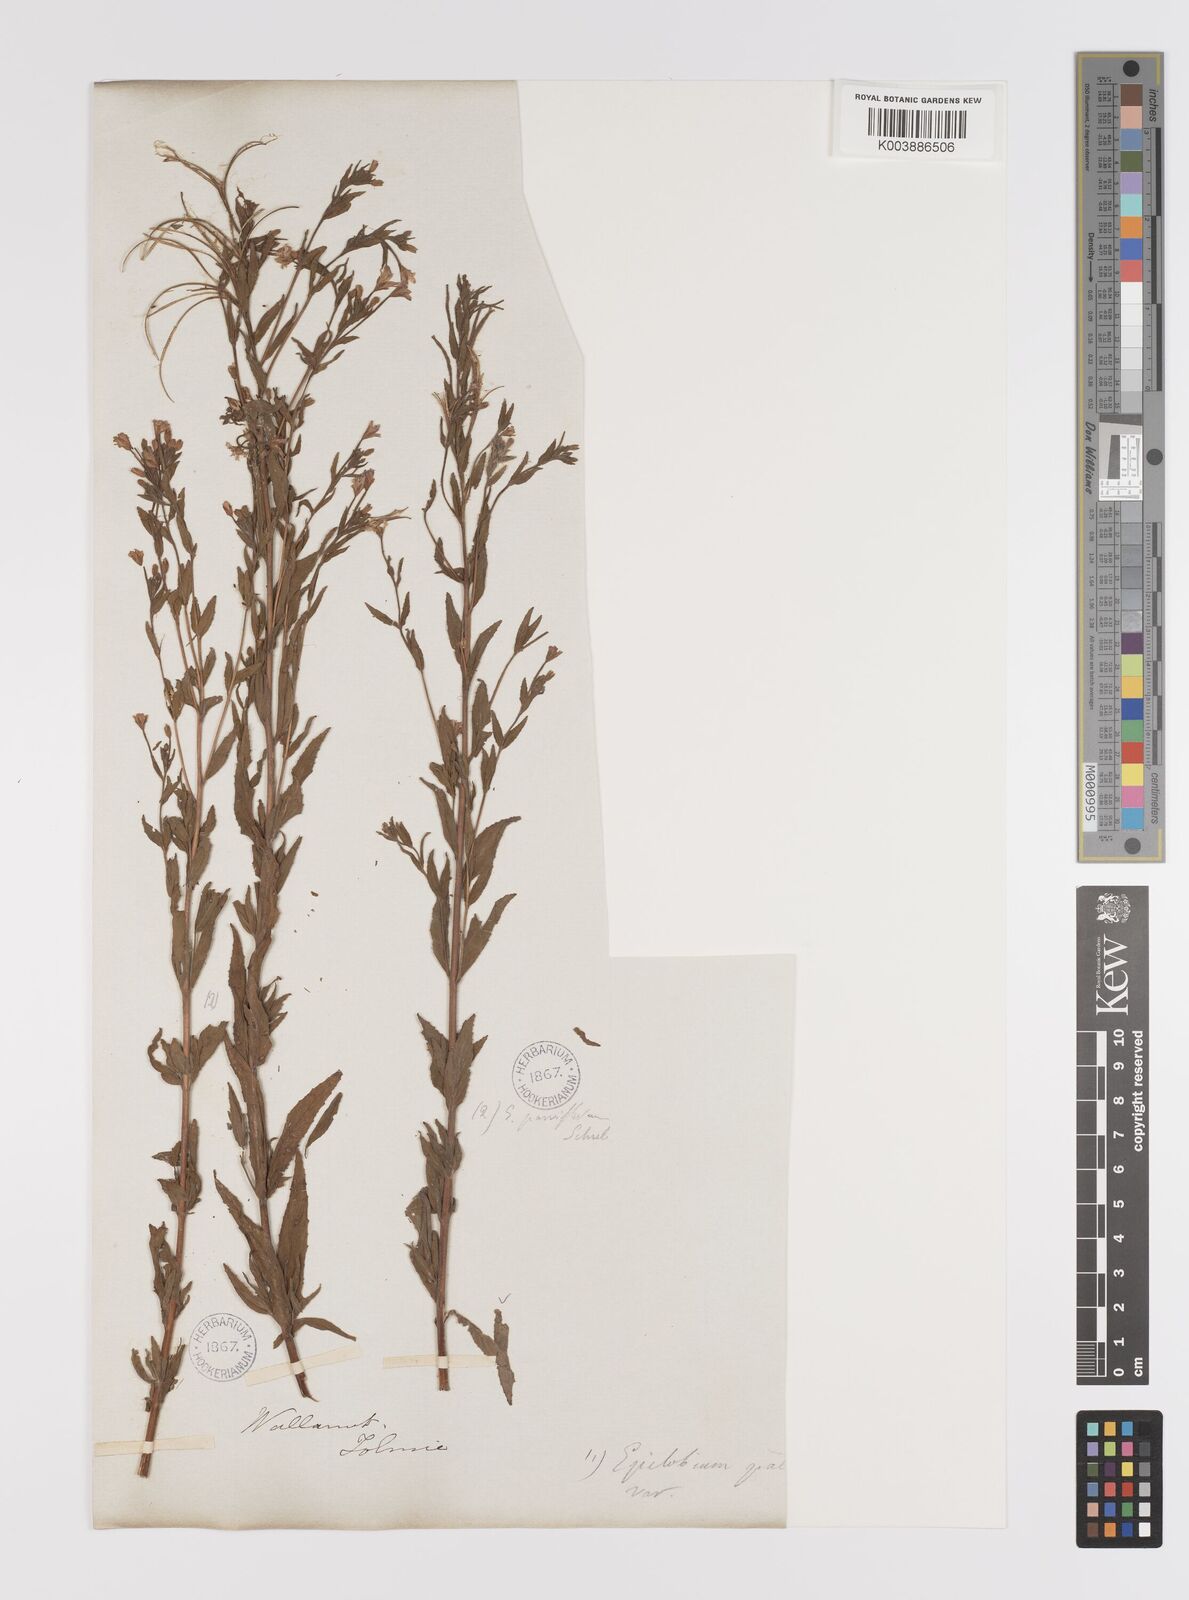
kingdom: Plantae
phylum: Tracheophyta
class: Magnoliopsida
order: Myrtales
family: Onagraceae
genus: Epilobium
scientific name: Epilobium parviflorum
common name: Hoary willowherb
